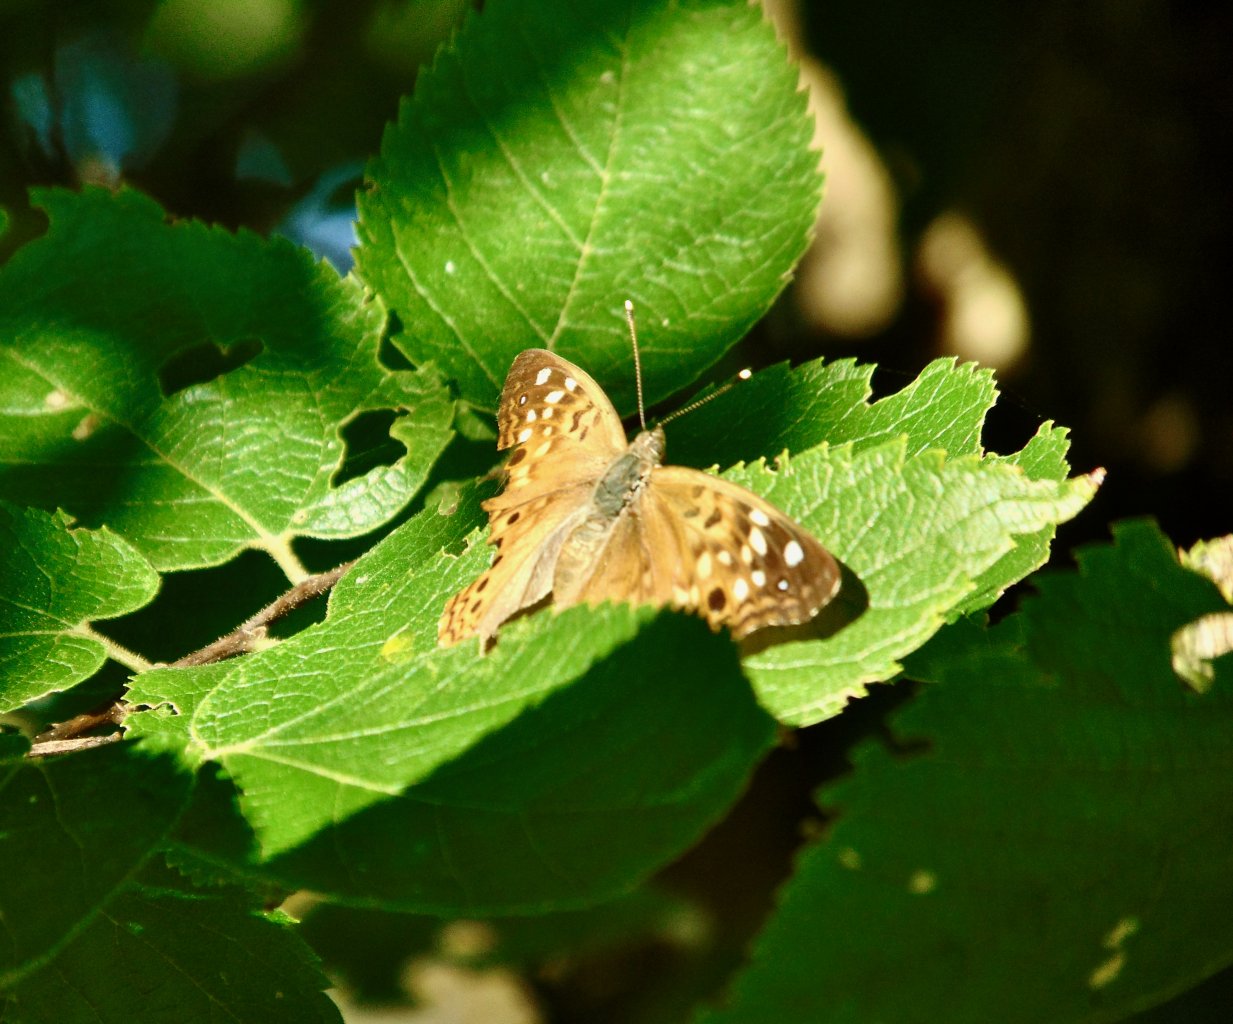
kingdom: Animalia
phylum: Arthropoda
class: Insecta
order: Lepidoptera
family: Nymphalidae
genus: Asterocampa
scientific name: Asterocampa celtis
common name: Hackberry Emperor
